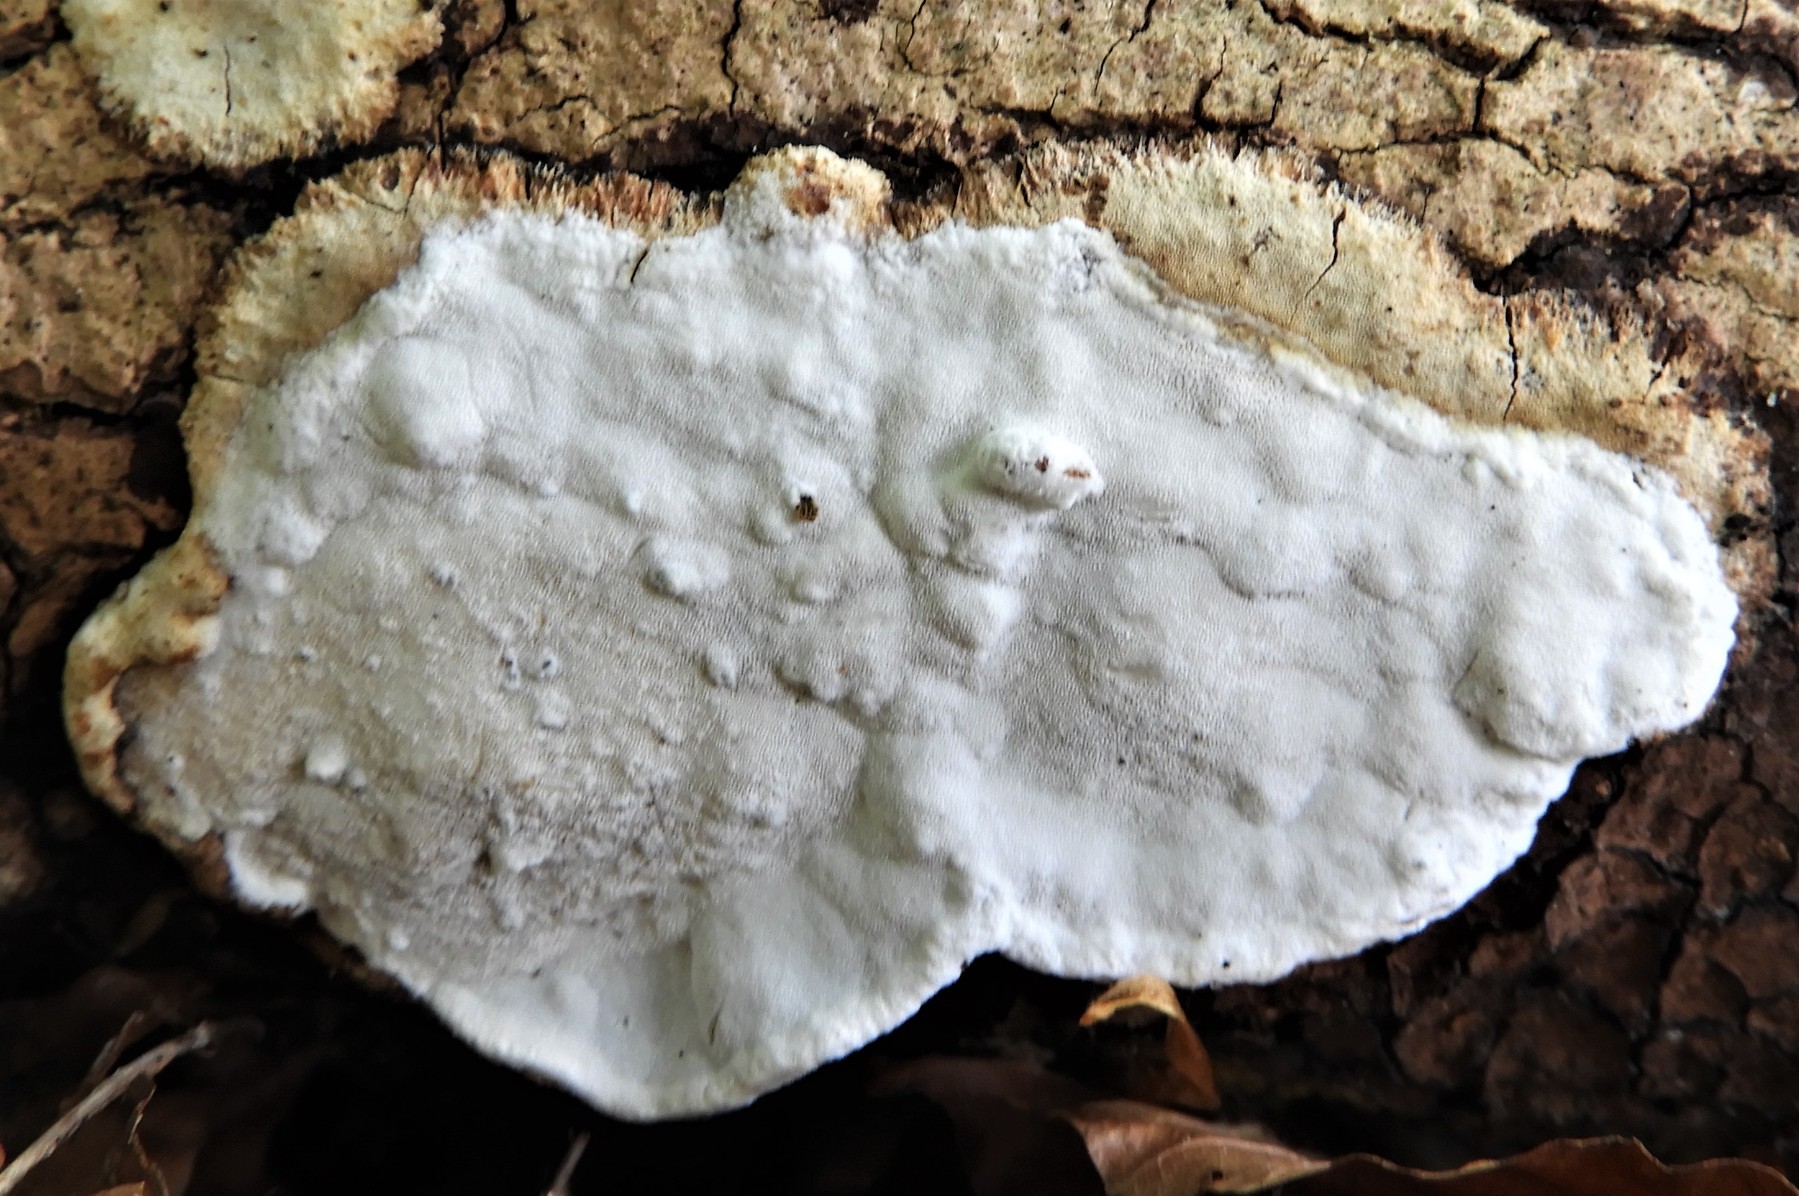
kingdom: Fungi
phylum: Basidiomycota
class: Agaricomycetes
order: Polyporales
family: Incrustoporiaceae
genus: Skeletocutis
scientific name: Skeletocutis nemoralis
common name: stor krystalporesvamp
